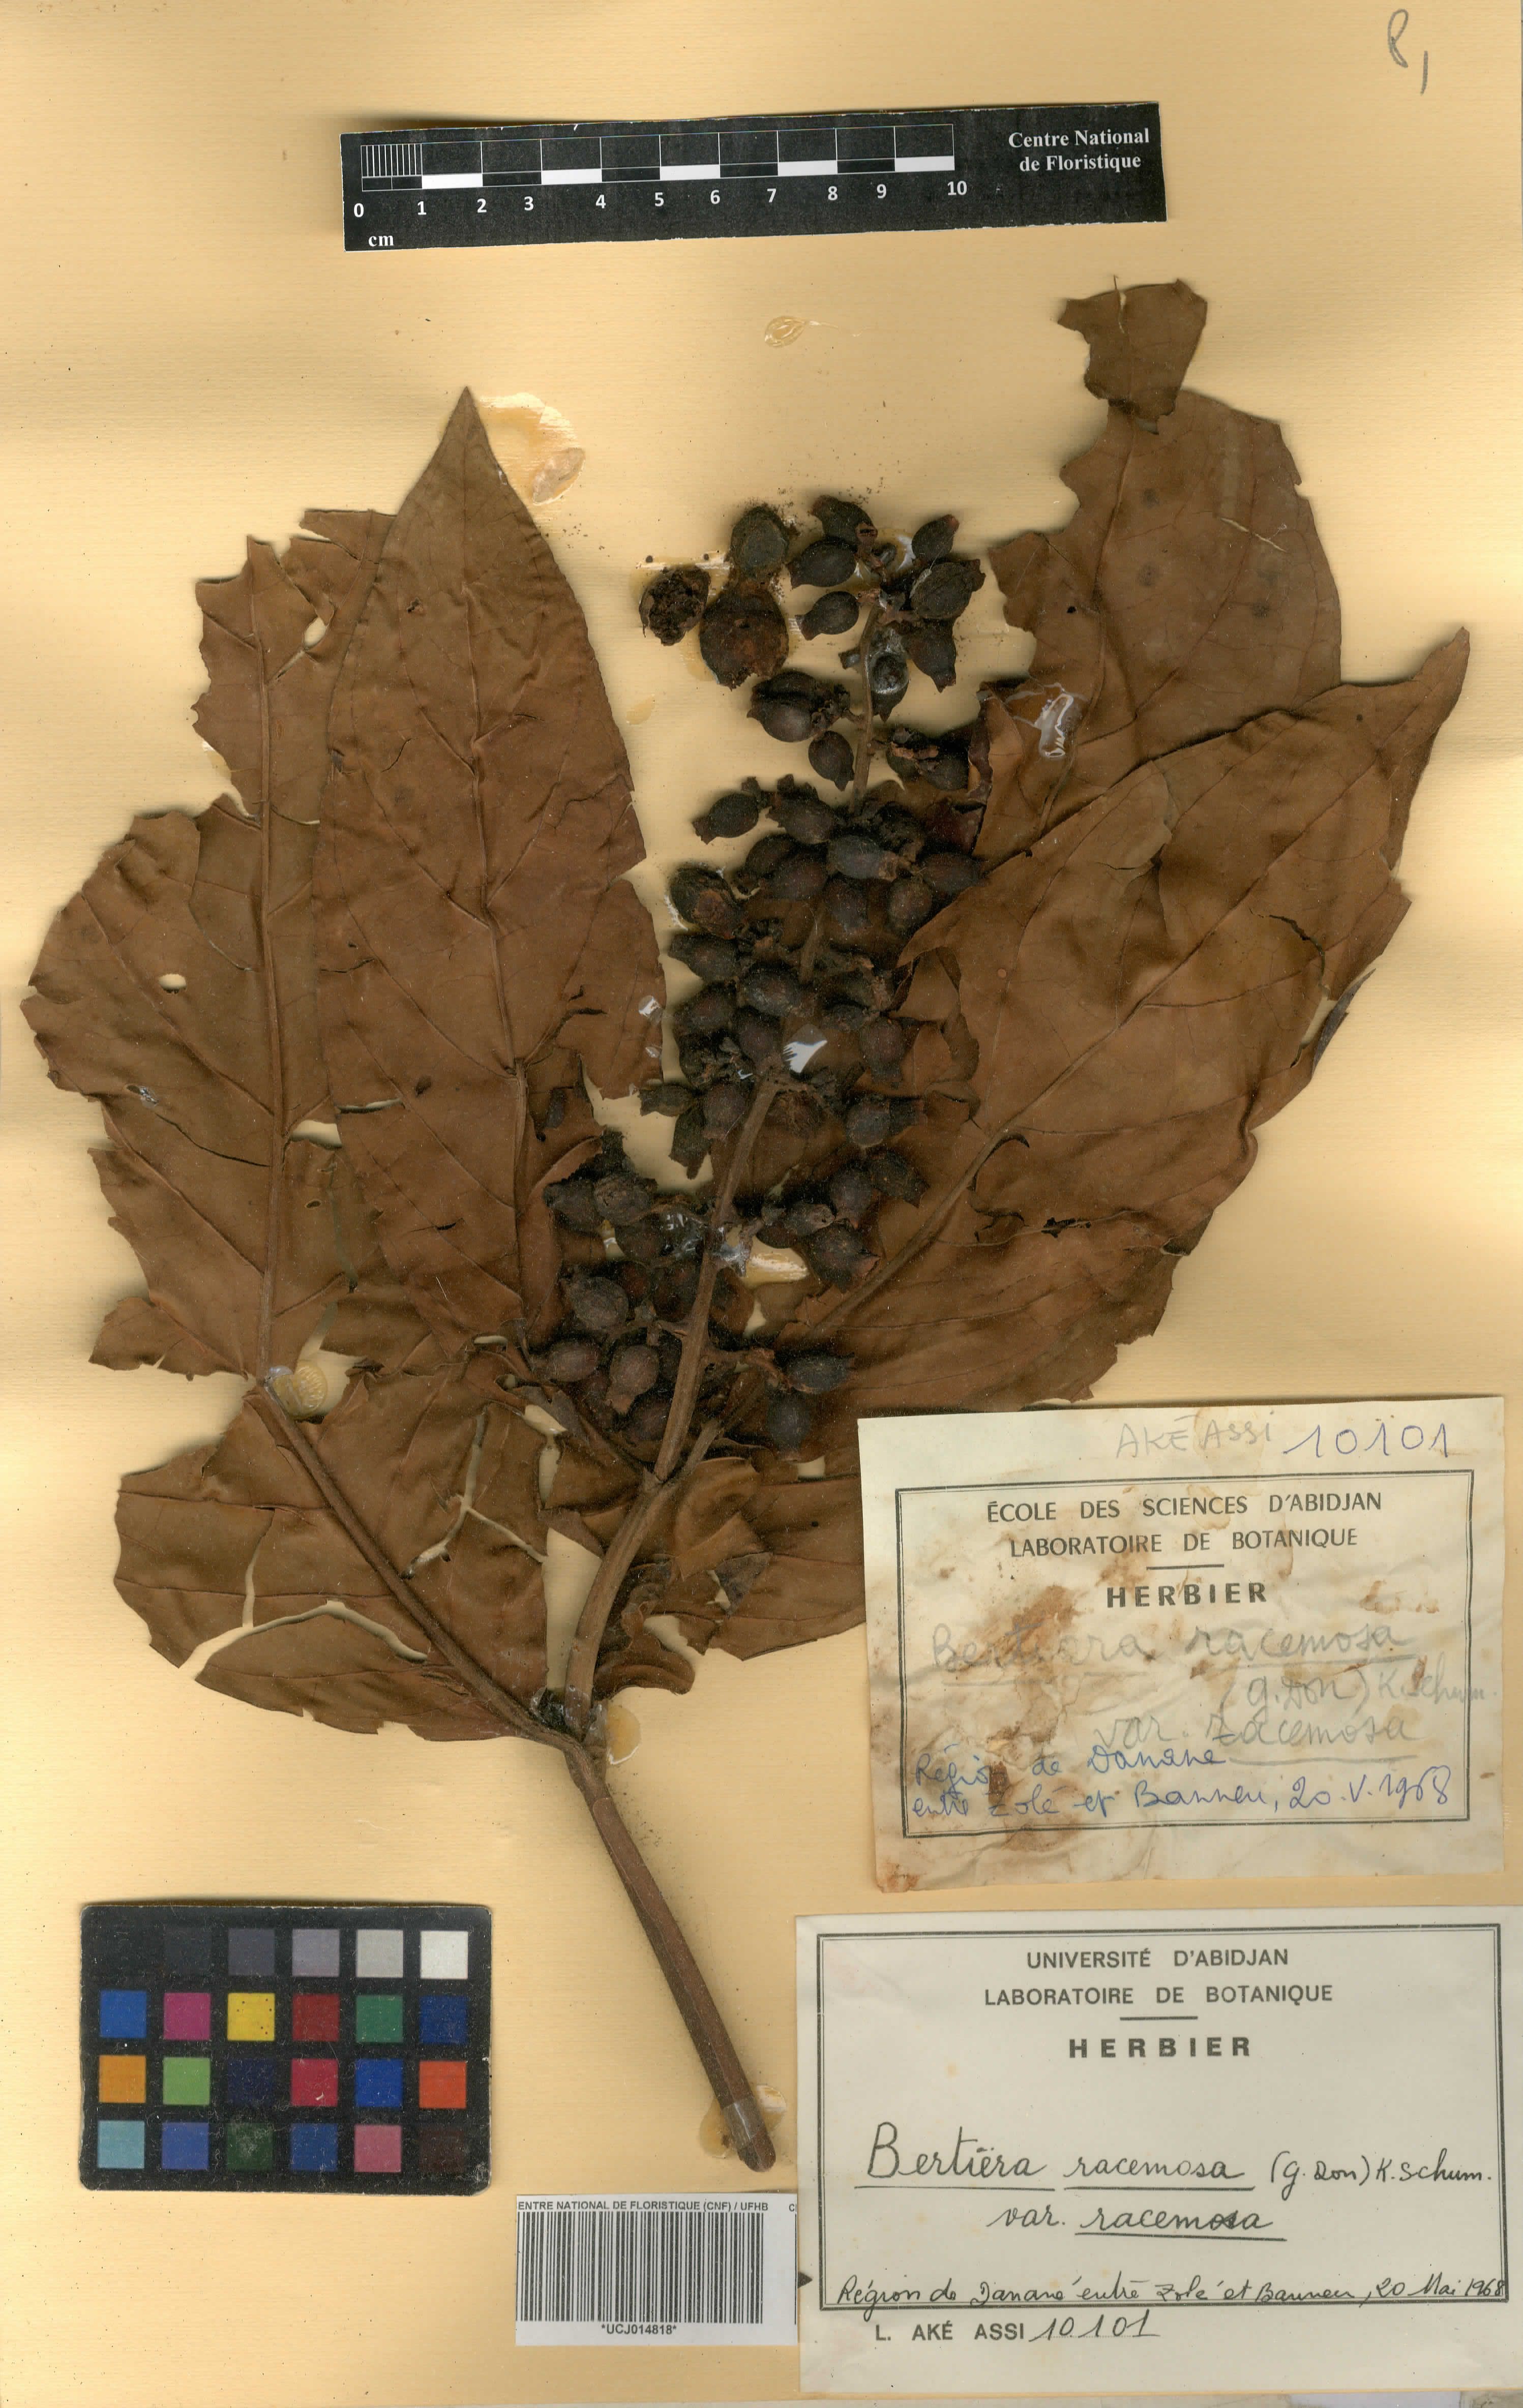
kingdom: Plantae
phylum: Tracheophyta
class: Magnoliopsida
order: Gentianales
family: Rubiaceae
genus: Bertiera
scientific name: Bertiera racemosa
